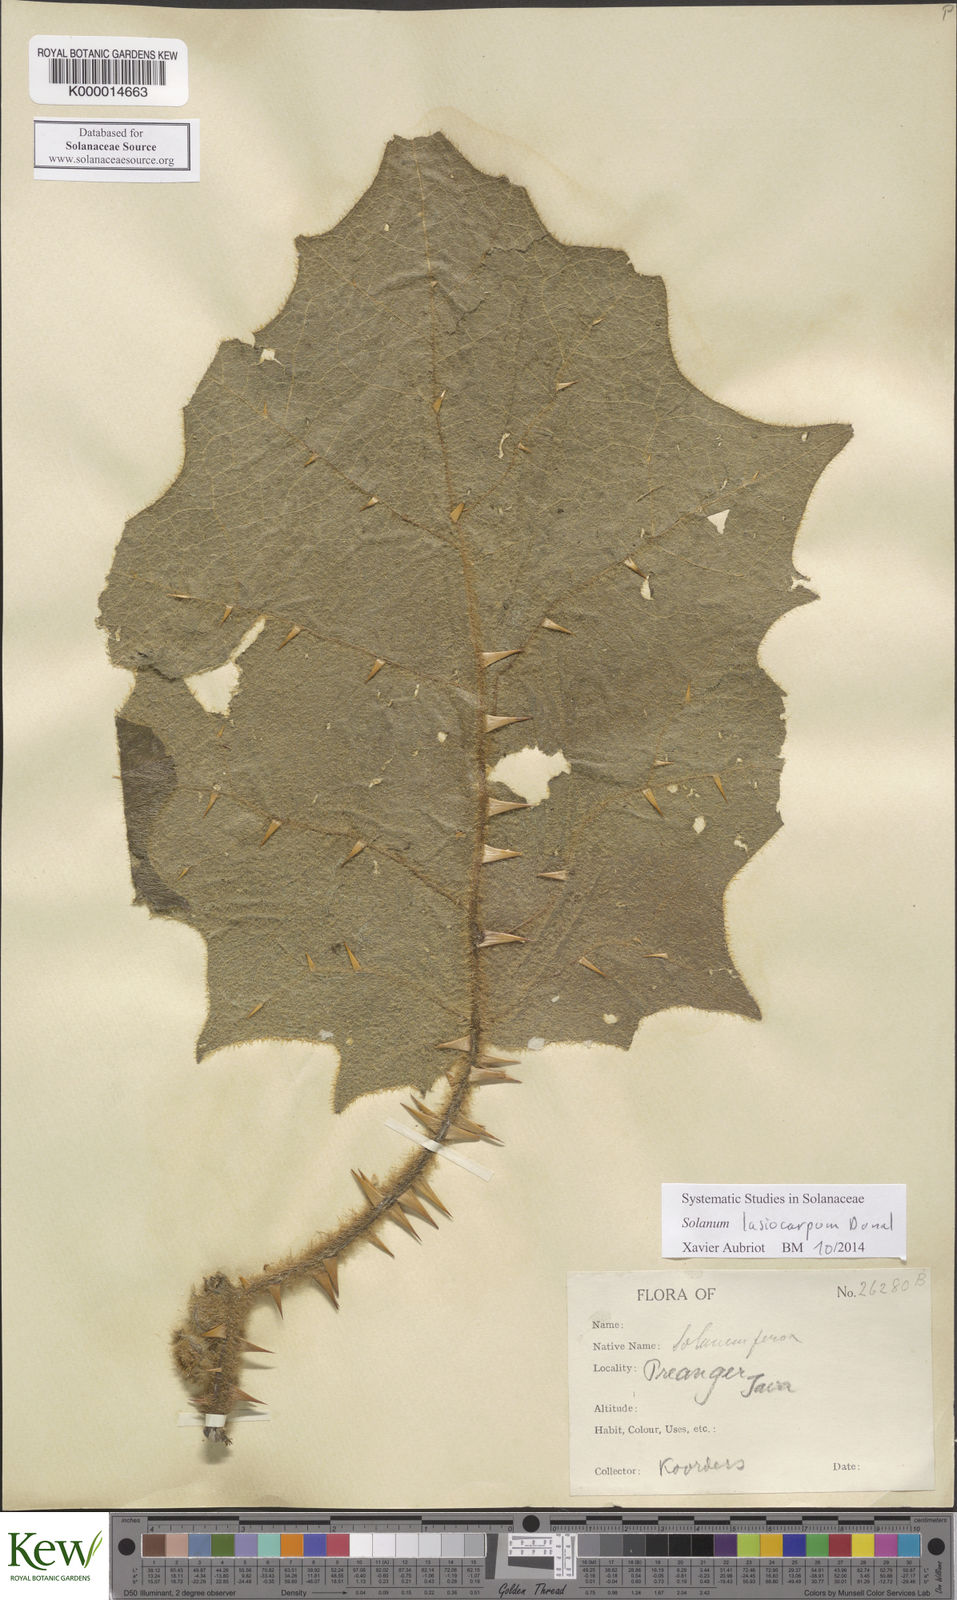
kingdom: Plantae
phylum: Tracheophyta
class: Magnoliopsida
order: Solanales
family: Solanaceae
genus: Solanum
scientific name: Solanum lasiocarpum
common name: Indian nightshade
